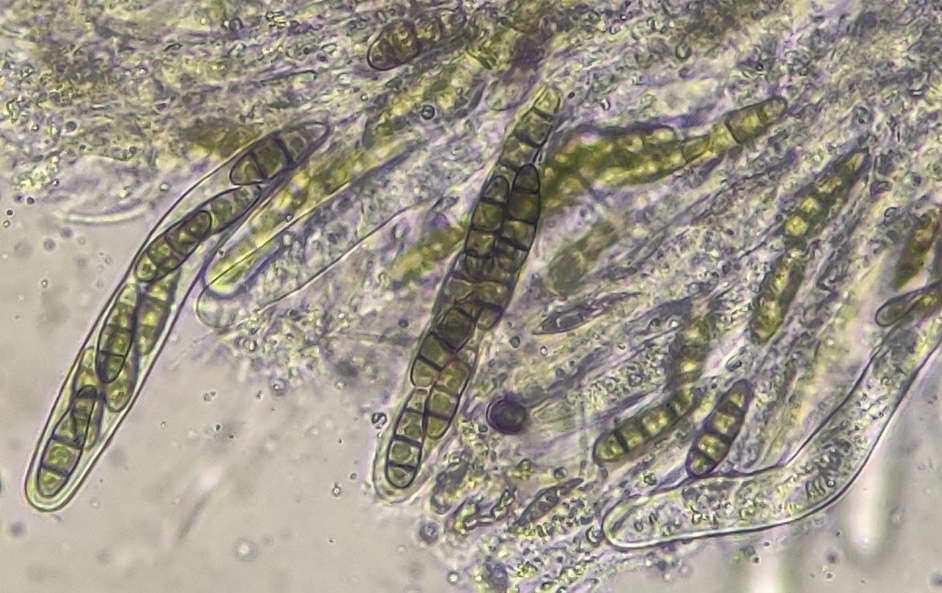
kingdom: Fungi
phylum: Ascomycota
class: Dothideomycetes
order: Hysteriales
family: Hysteriaceae
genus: Hysterium
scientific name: Hysterium acuminatum
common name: almindelig kulmund
